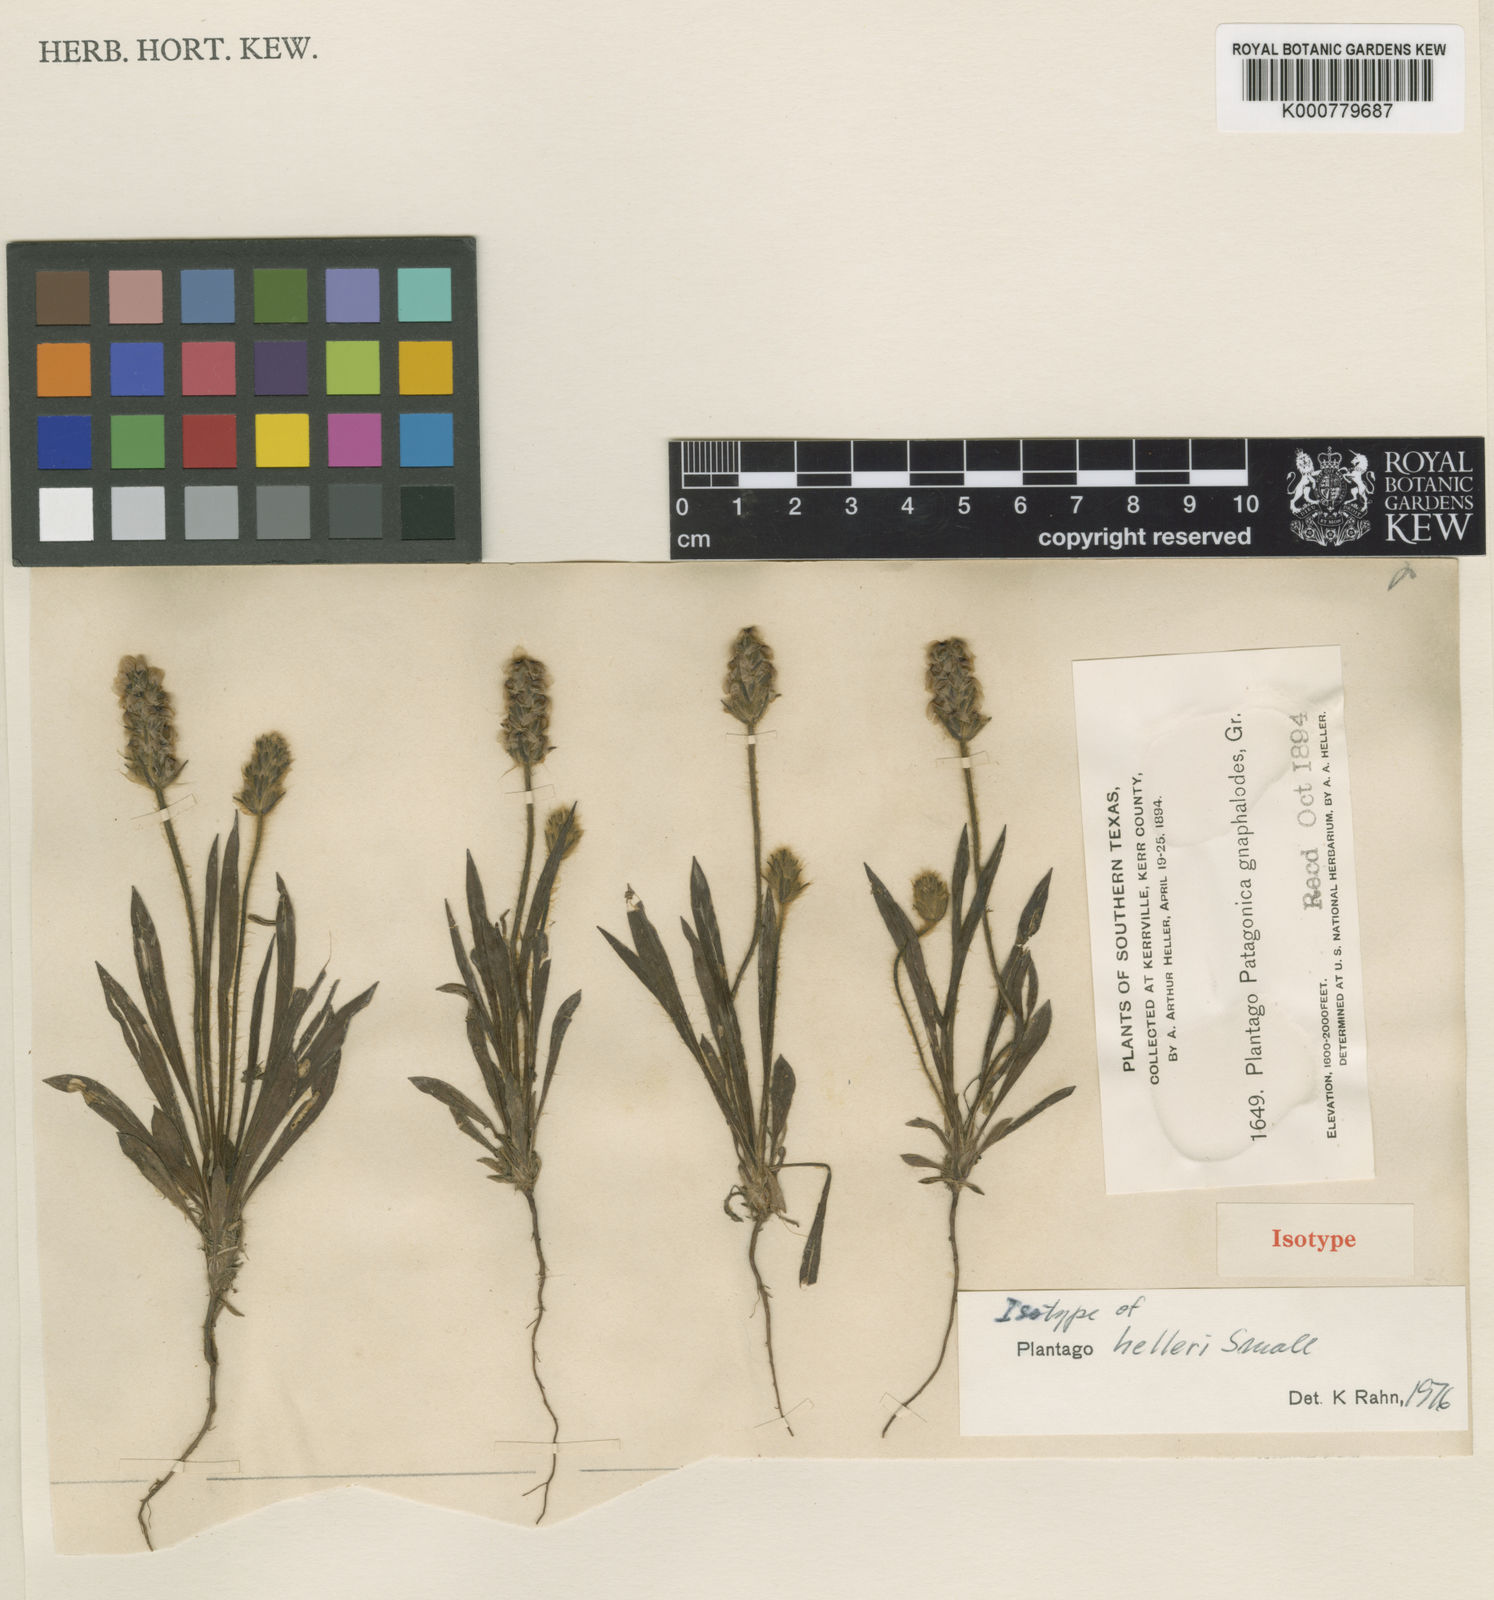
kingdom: Plantae
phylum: Tracheophyta
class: Magnoliopsida
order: Lamiales
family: Plantaginaceae
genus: Plantago
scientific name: Plantago helleri
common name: Heller's plantain
